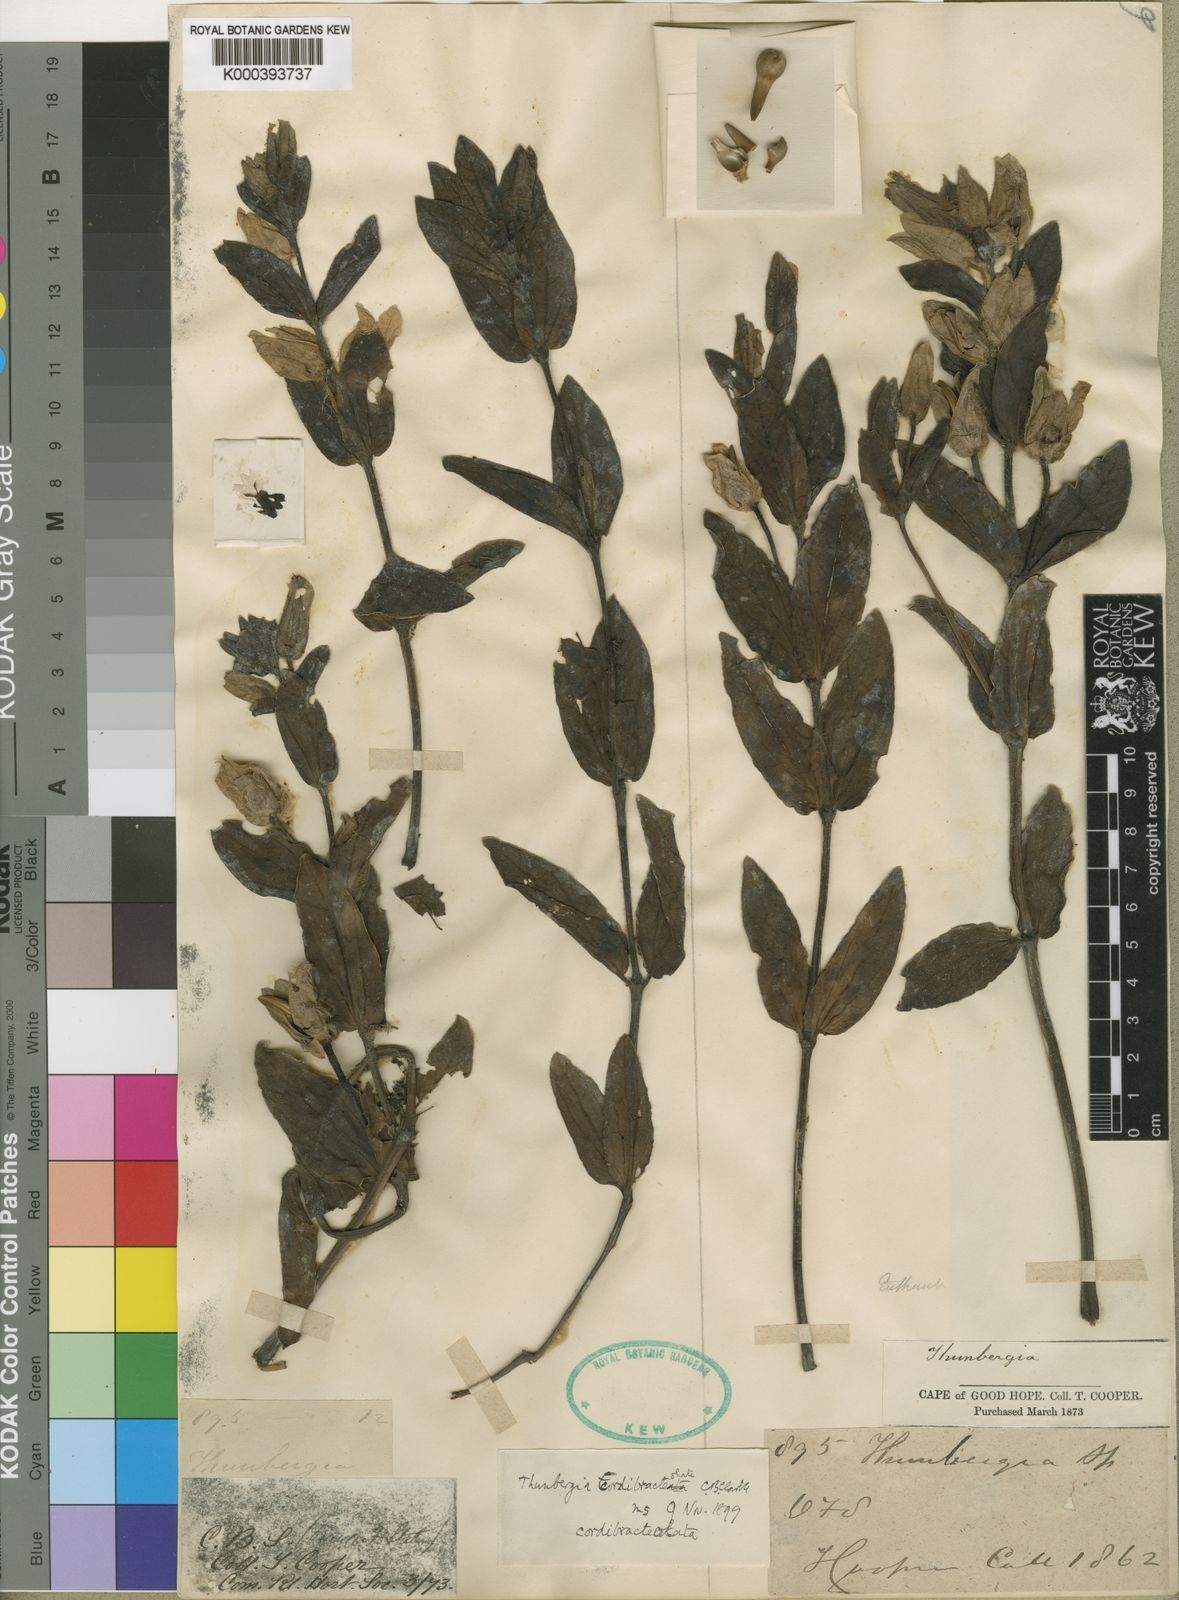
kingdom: Plantae
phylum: Tracheophyta
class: Magnoliopsida
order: Lamiales
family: Acanthaceae
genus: Thunbergia
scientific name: Thunbergia atriplicifolia
